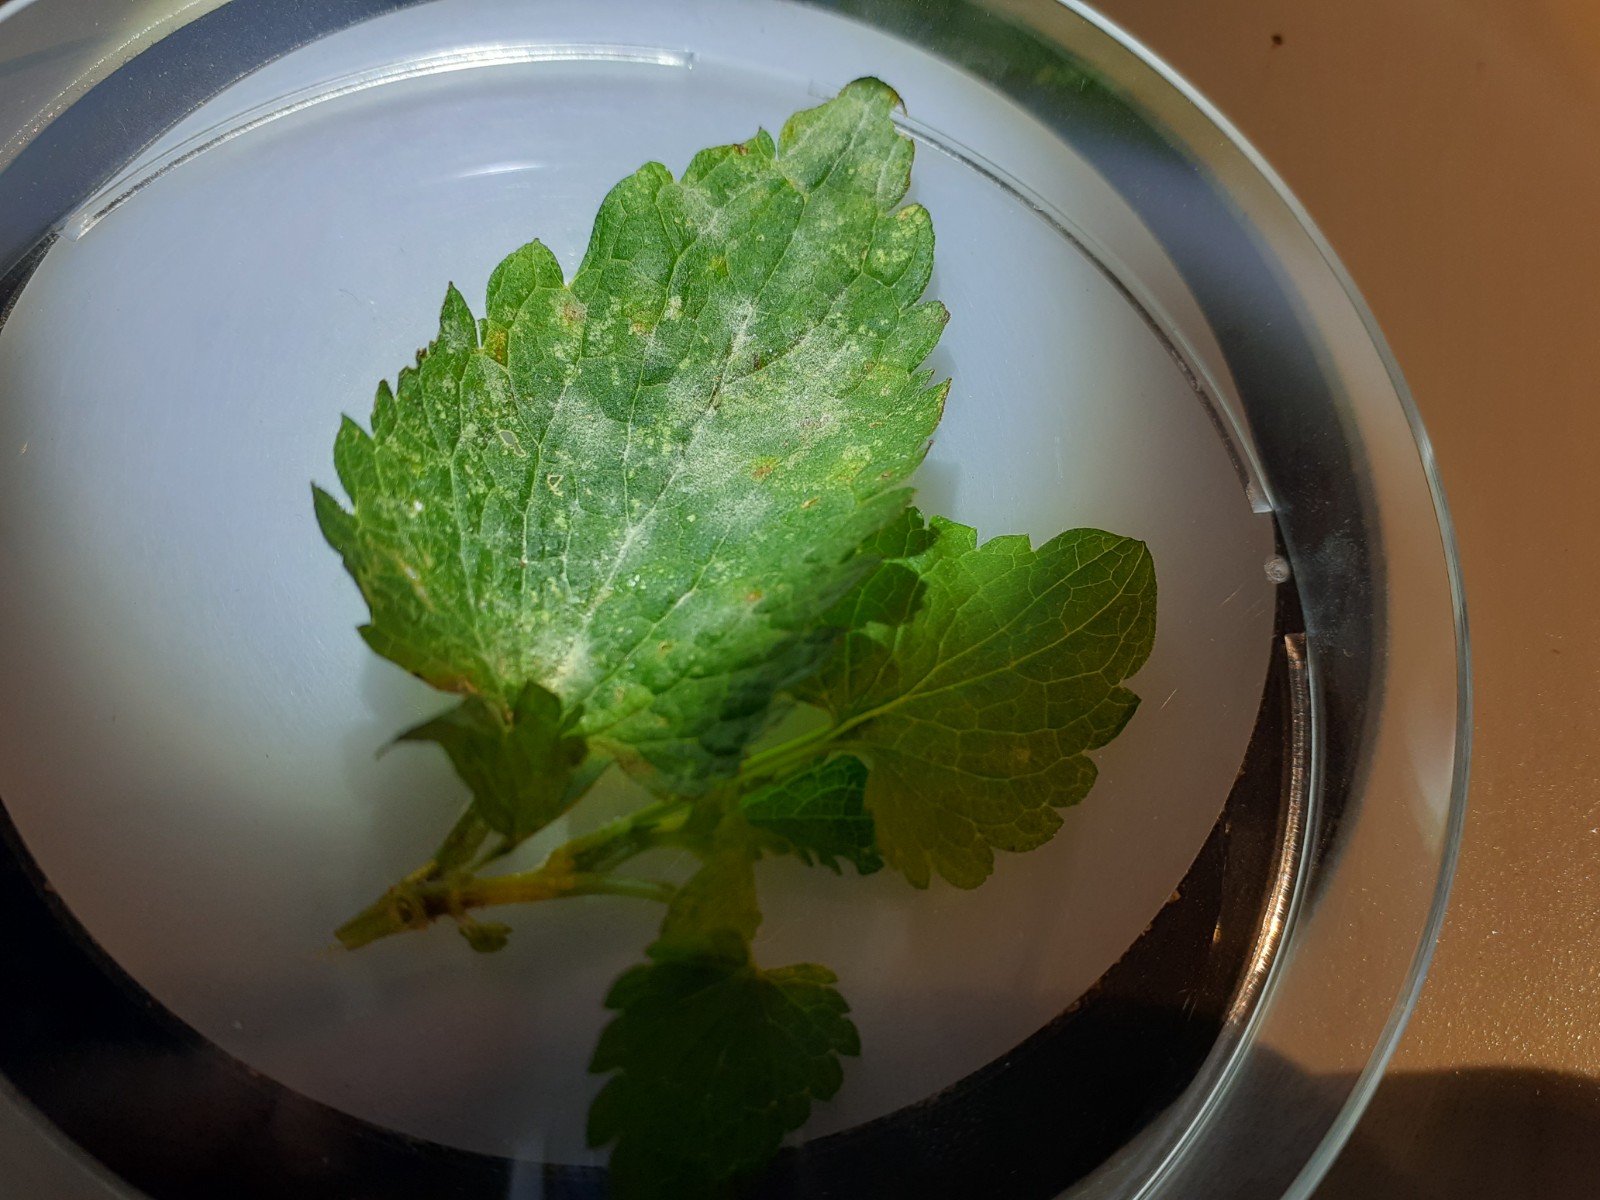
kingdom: Fungi
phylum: Ascomycota
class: Leotiomycetes
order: Helotiales
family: Erysiphaceae
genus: Neoerysiphe
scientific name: Neoerysiphe galeopsidis
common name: Mint mildew
